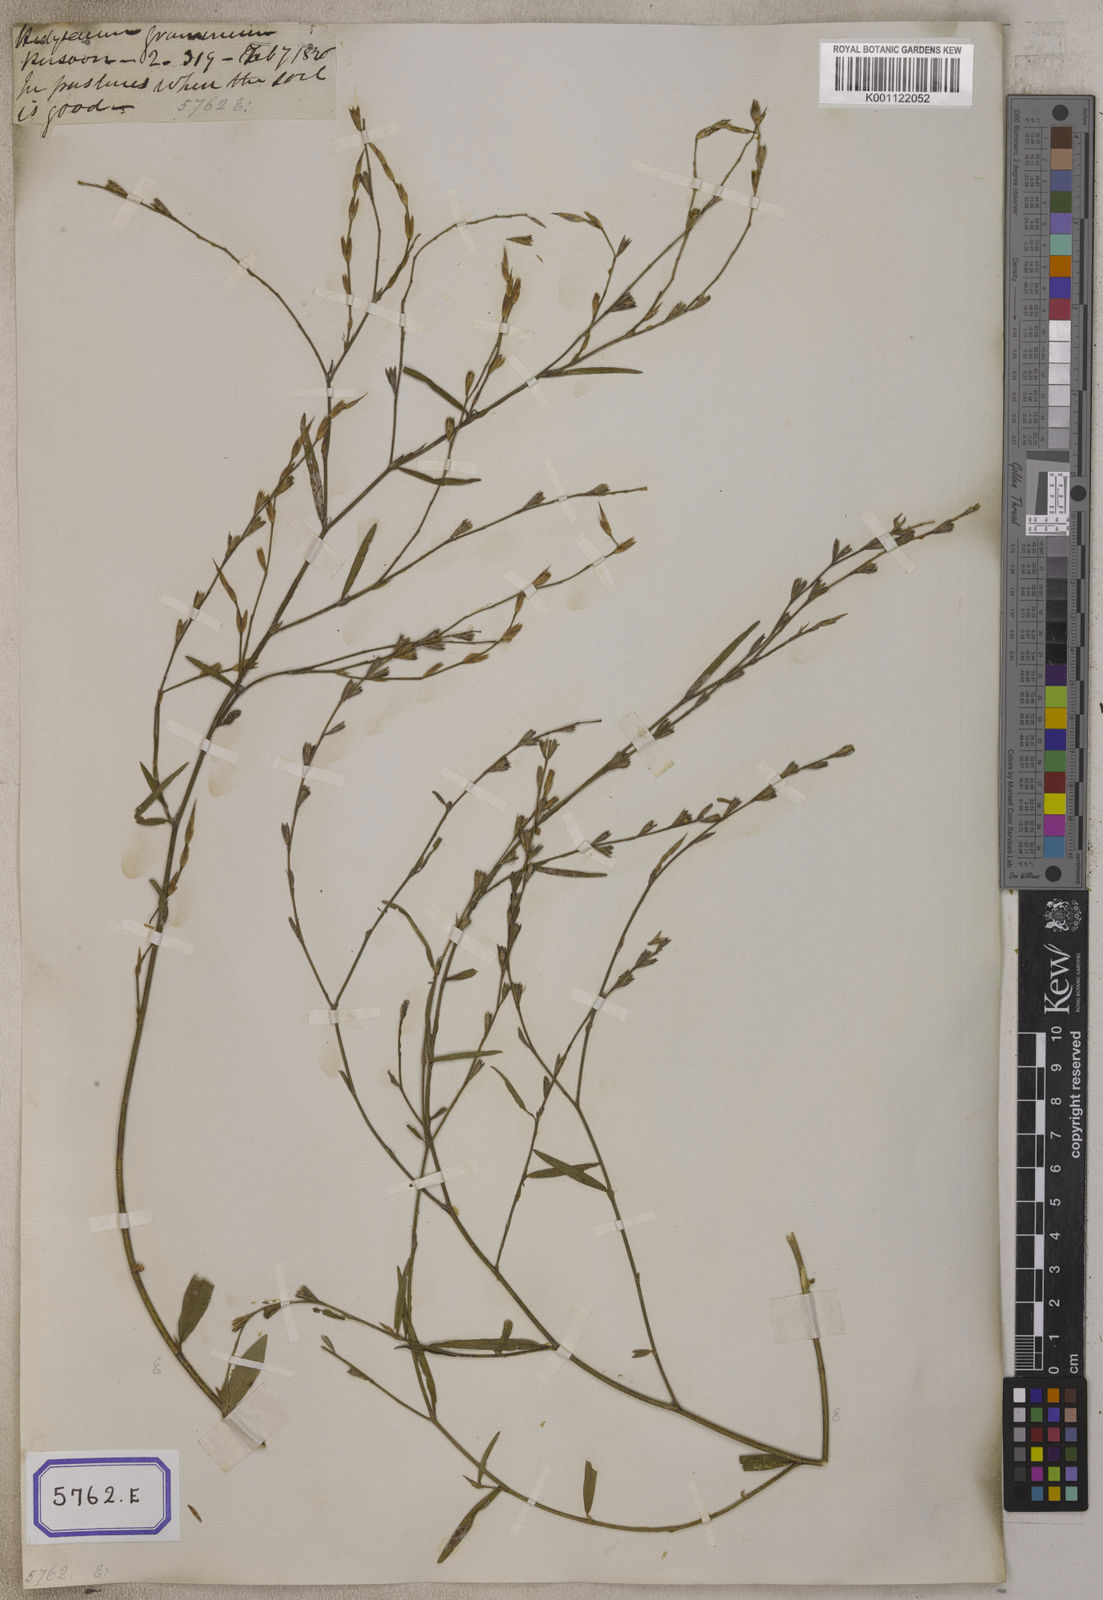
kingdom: Plantae
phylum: Tracheophyta
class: Magnoliopsida
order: Fabales
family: Fabaceae
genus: Alysicarpus
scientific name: Alysicarpus
